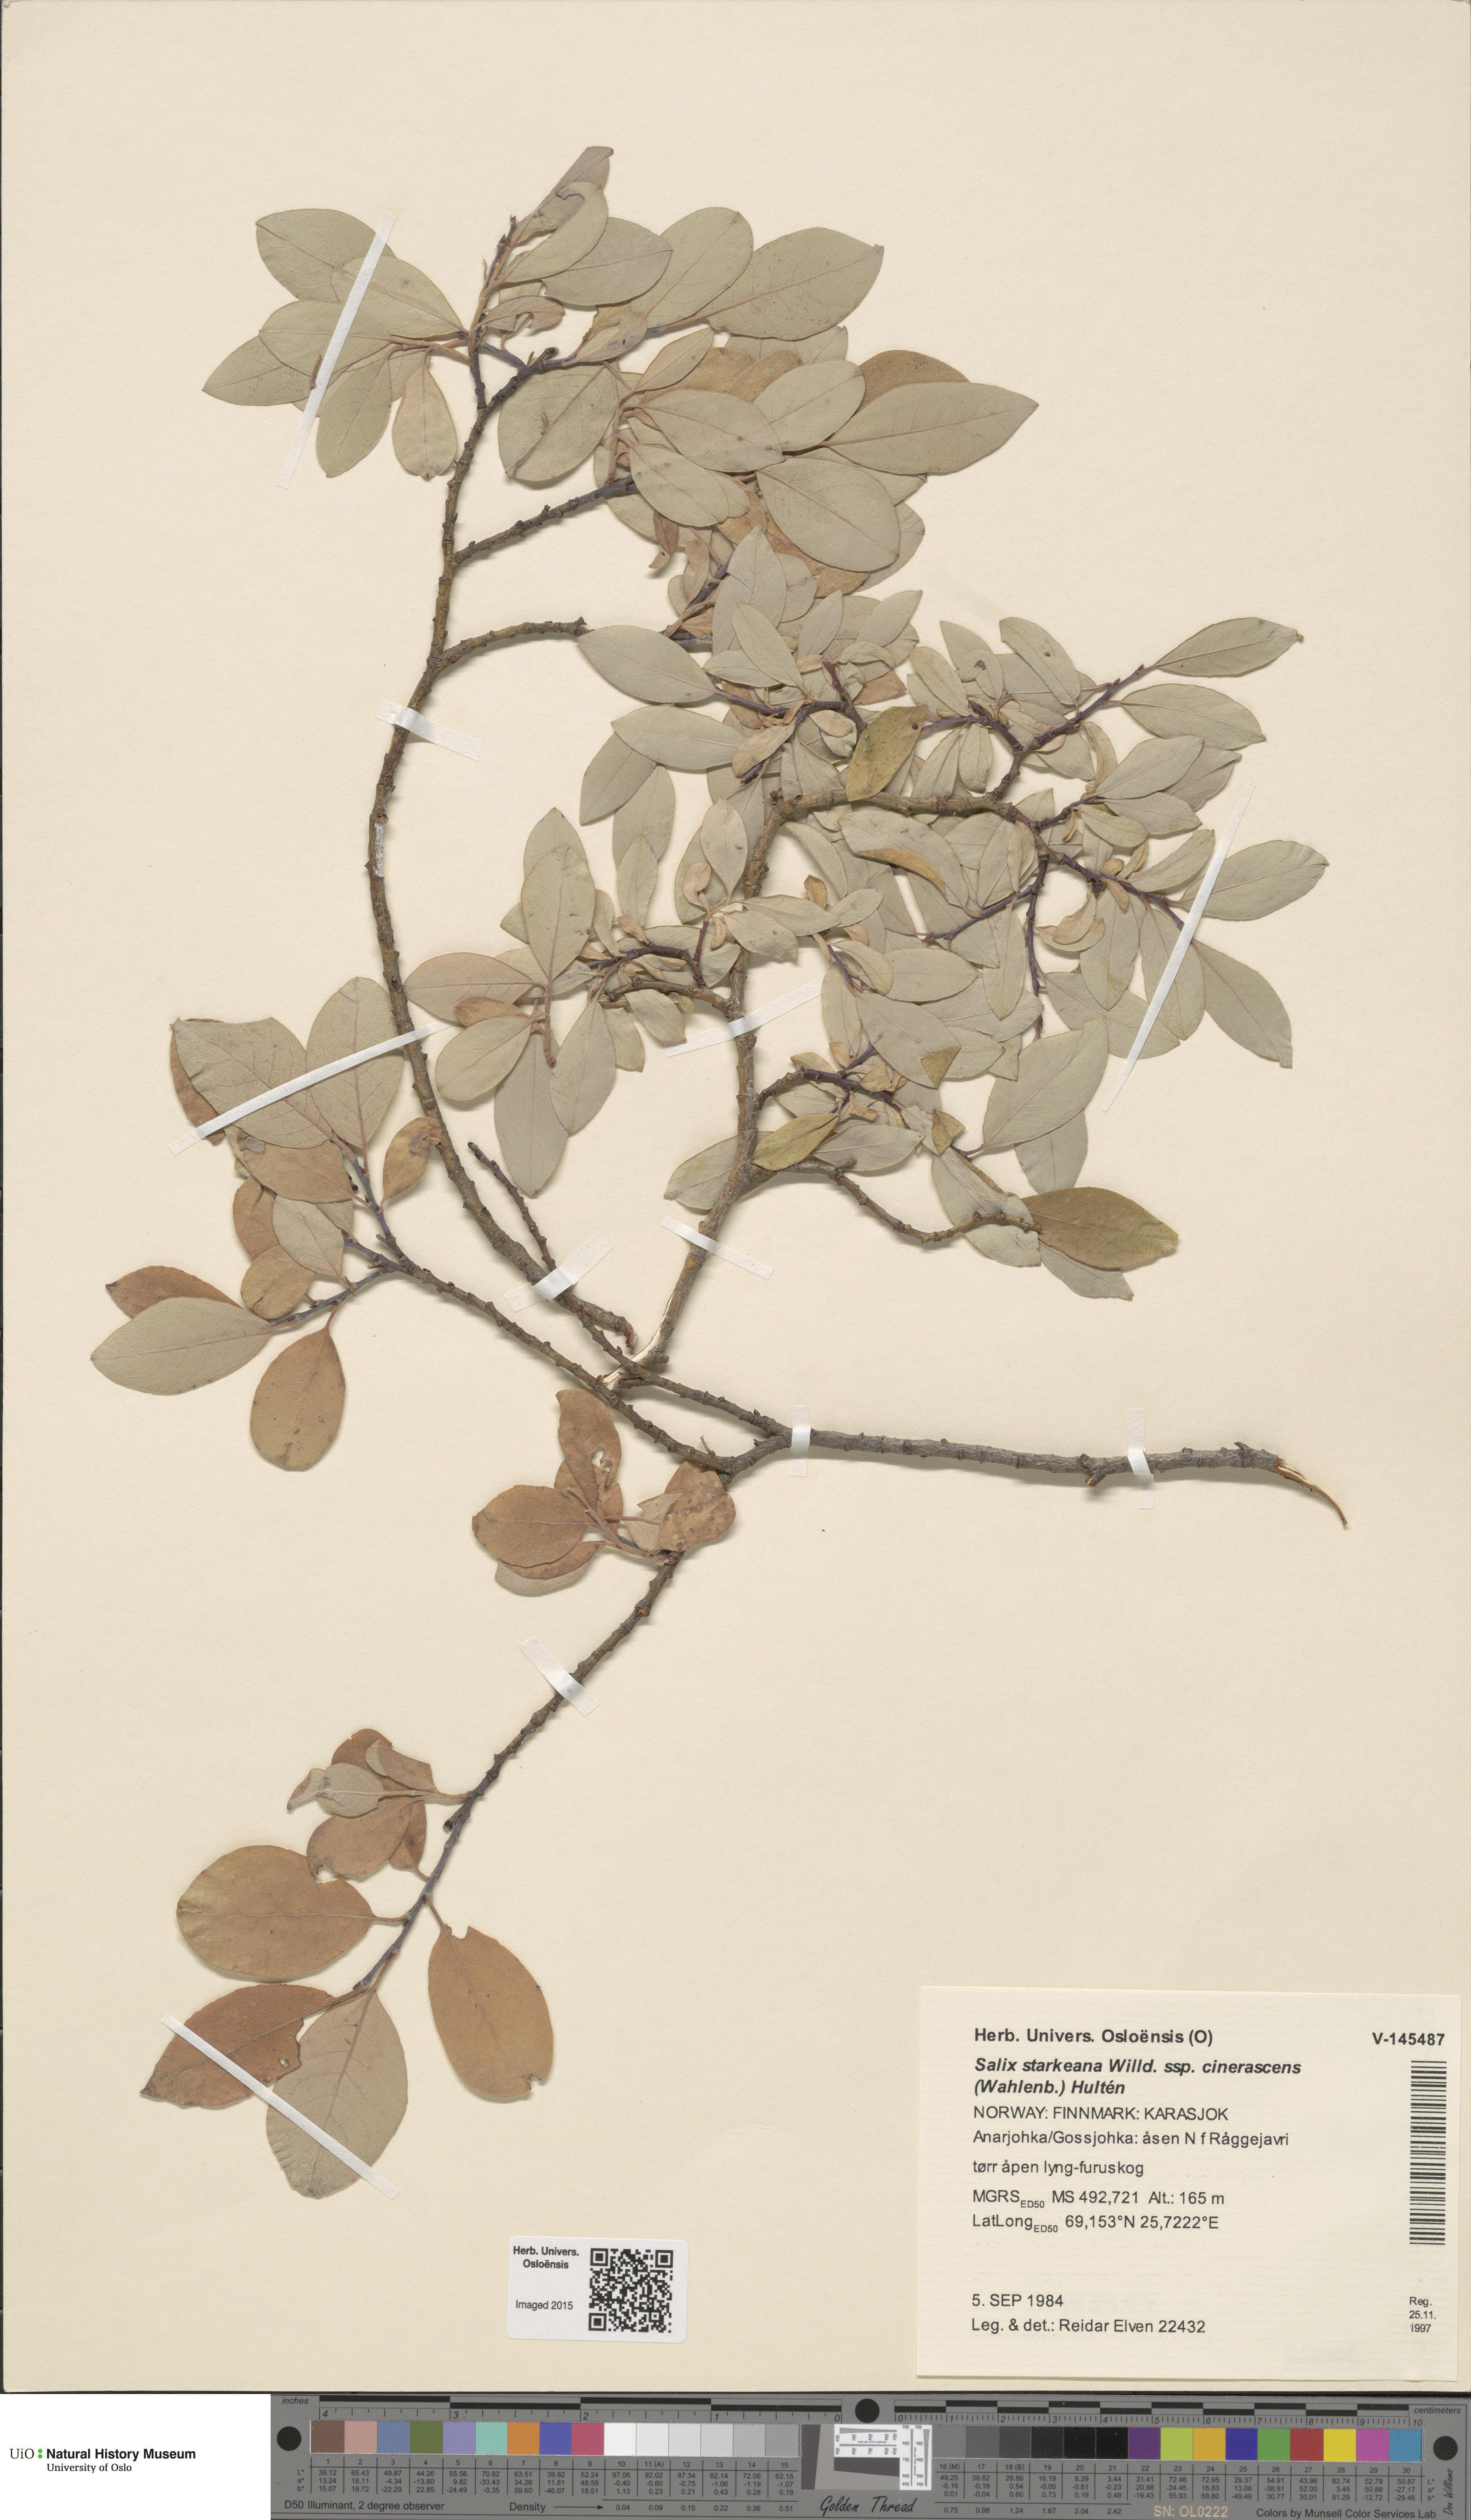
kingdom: Plantae
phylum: Tracheophyta
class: Magnoliopsida
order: Malpighiales
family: Salicaceae
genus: Salix
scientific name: Salix bebbiana
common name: Bebb's willow
